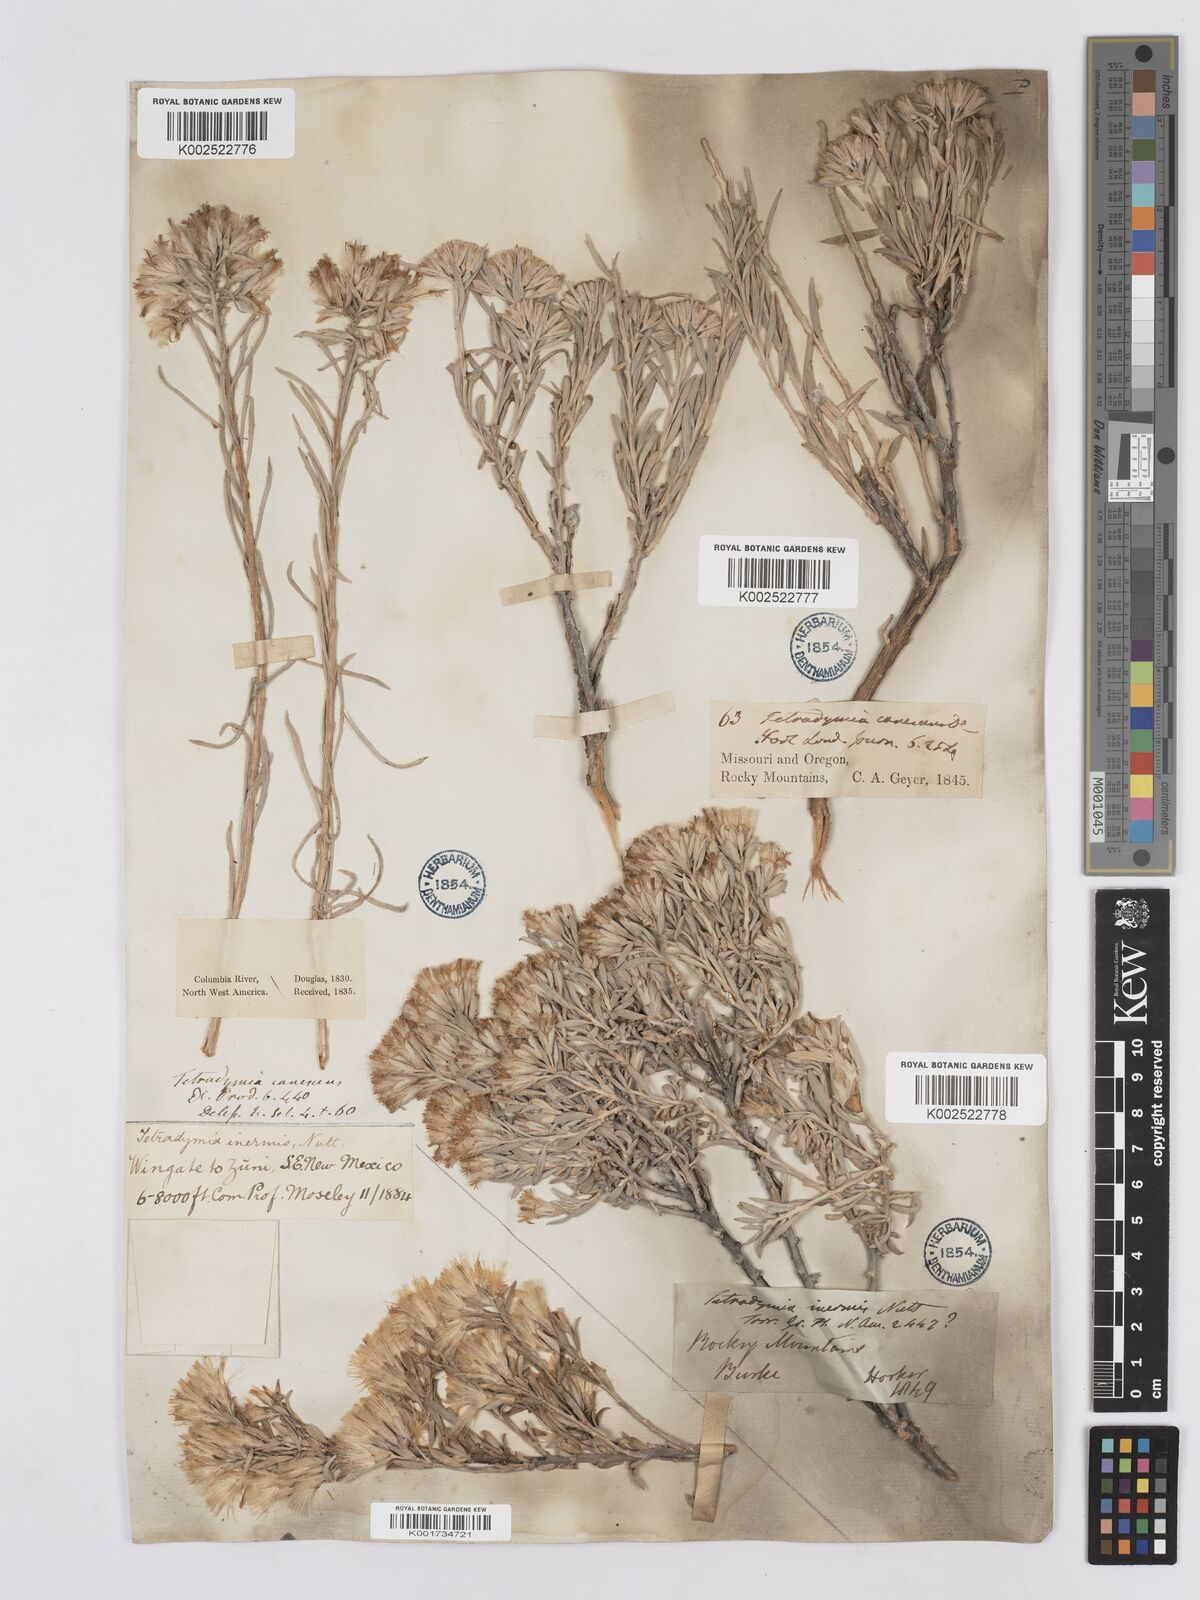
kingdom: Plantae
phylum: Tracheophyta
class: Magnoliopsida
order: Asterales
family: Asteraceae
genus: Tetradymia
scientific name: Tetradymia canescens
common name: Spineless horsebrush
